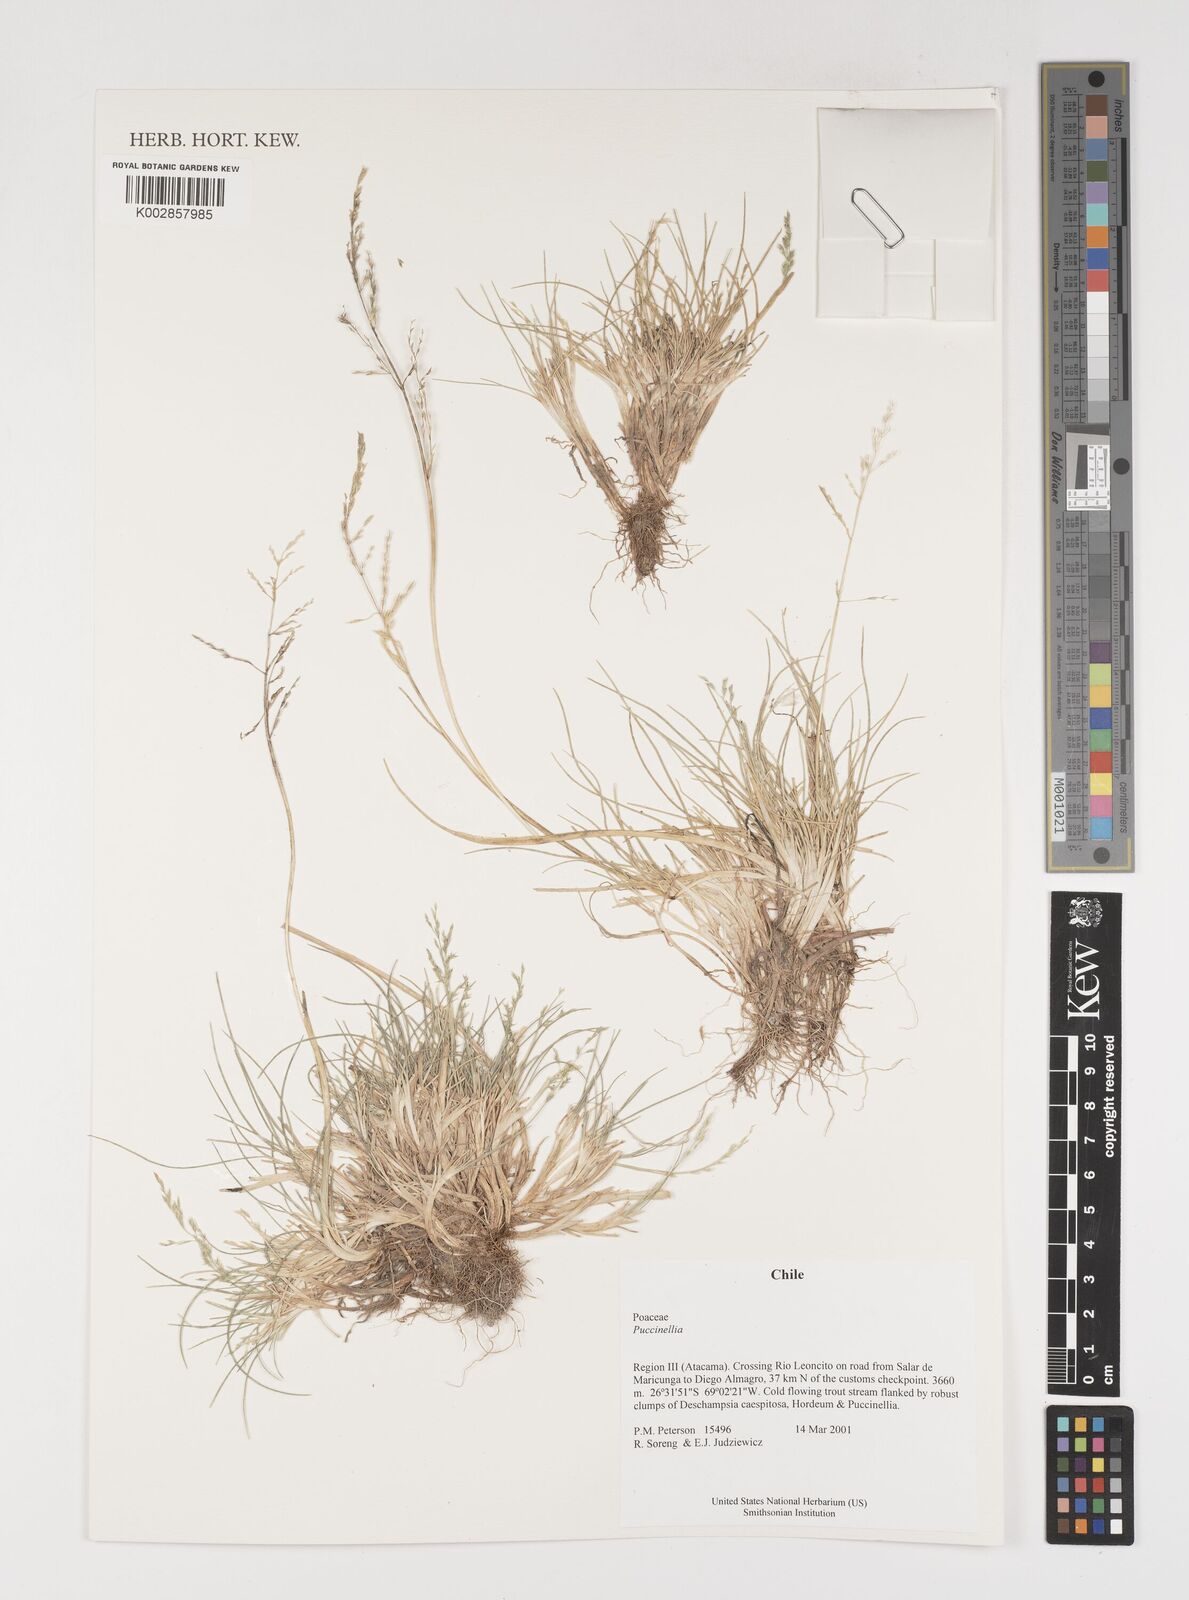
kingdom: Plantae
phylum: Tracheophyta
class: Liliopsida
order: Poales
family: Poaceae
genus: Puccinellia
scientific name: Puccinellia
